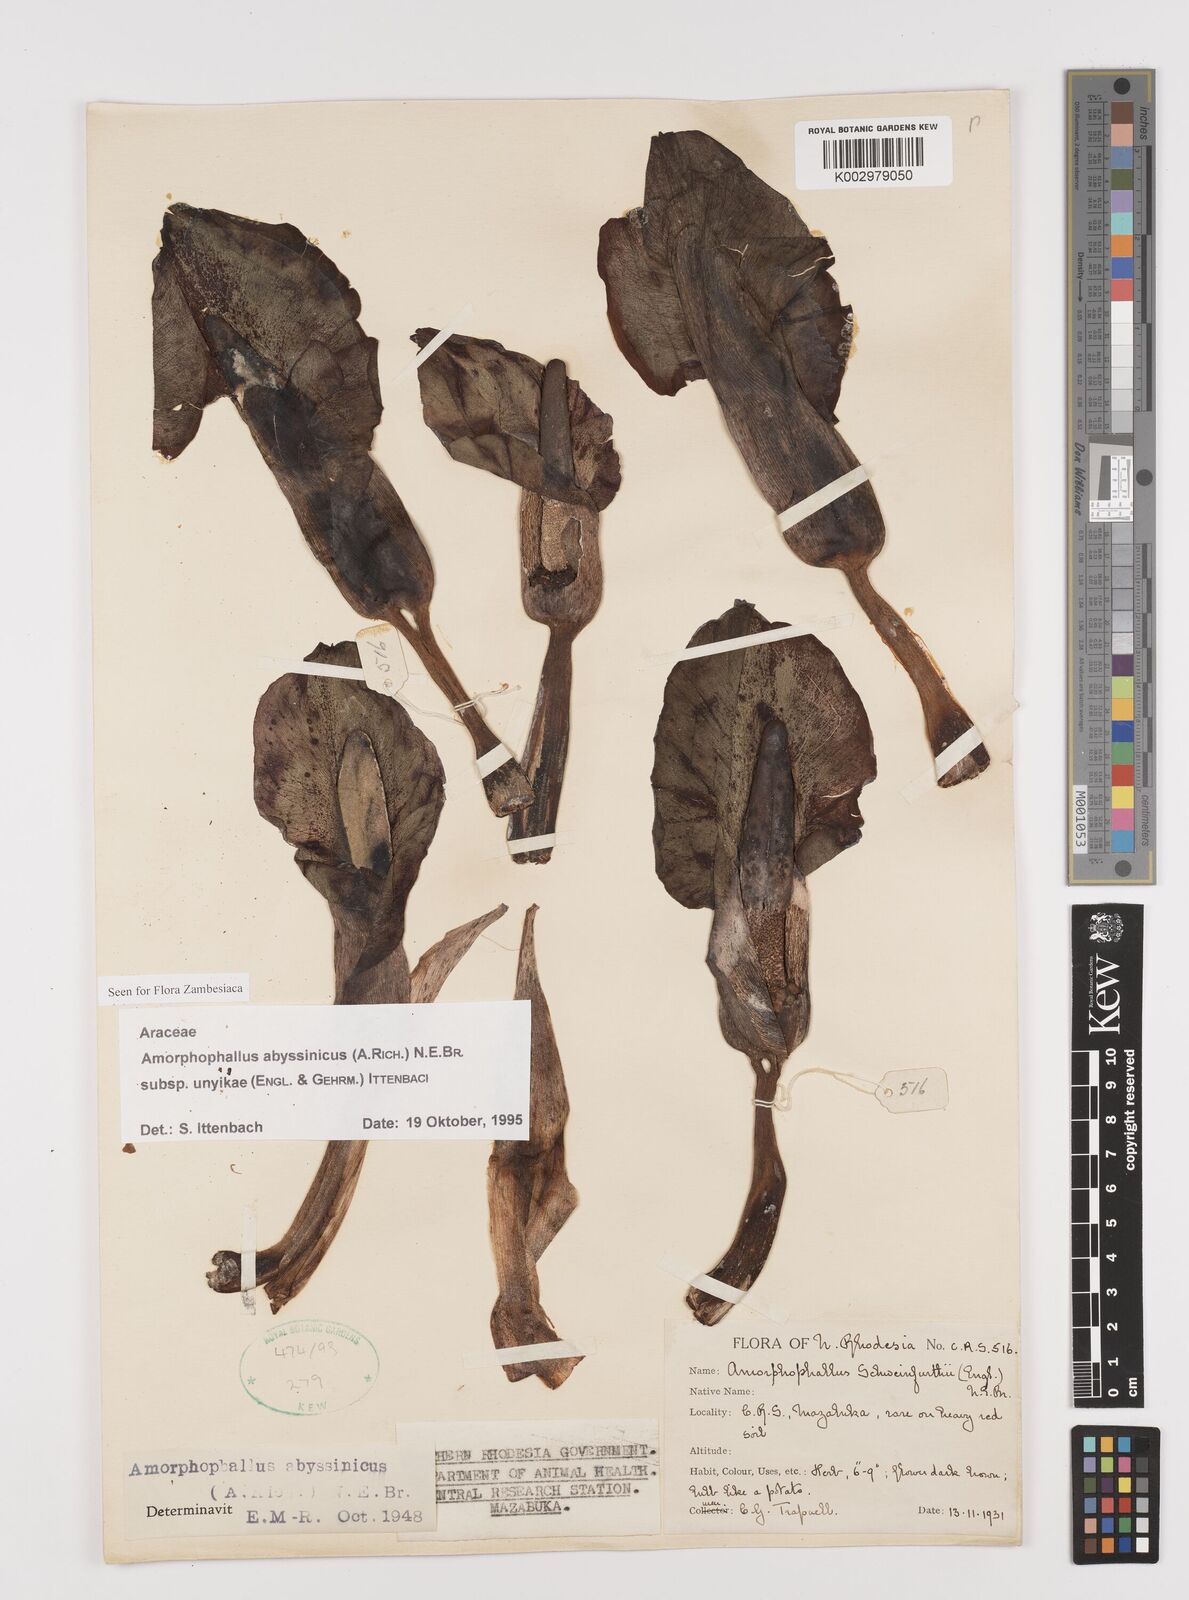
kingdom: Plantae
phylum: Tracheophyta
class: Liliopsida
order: Alismatales
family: Araceae
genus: Amorphophallus
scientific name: Amorphophallus abyssinicus
